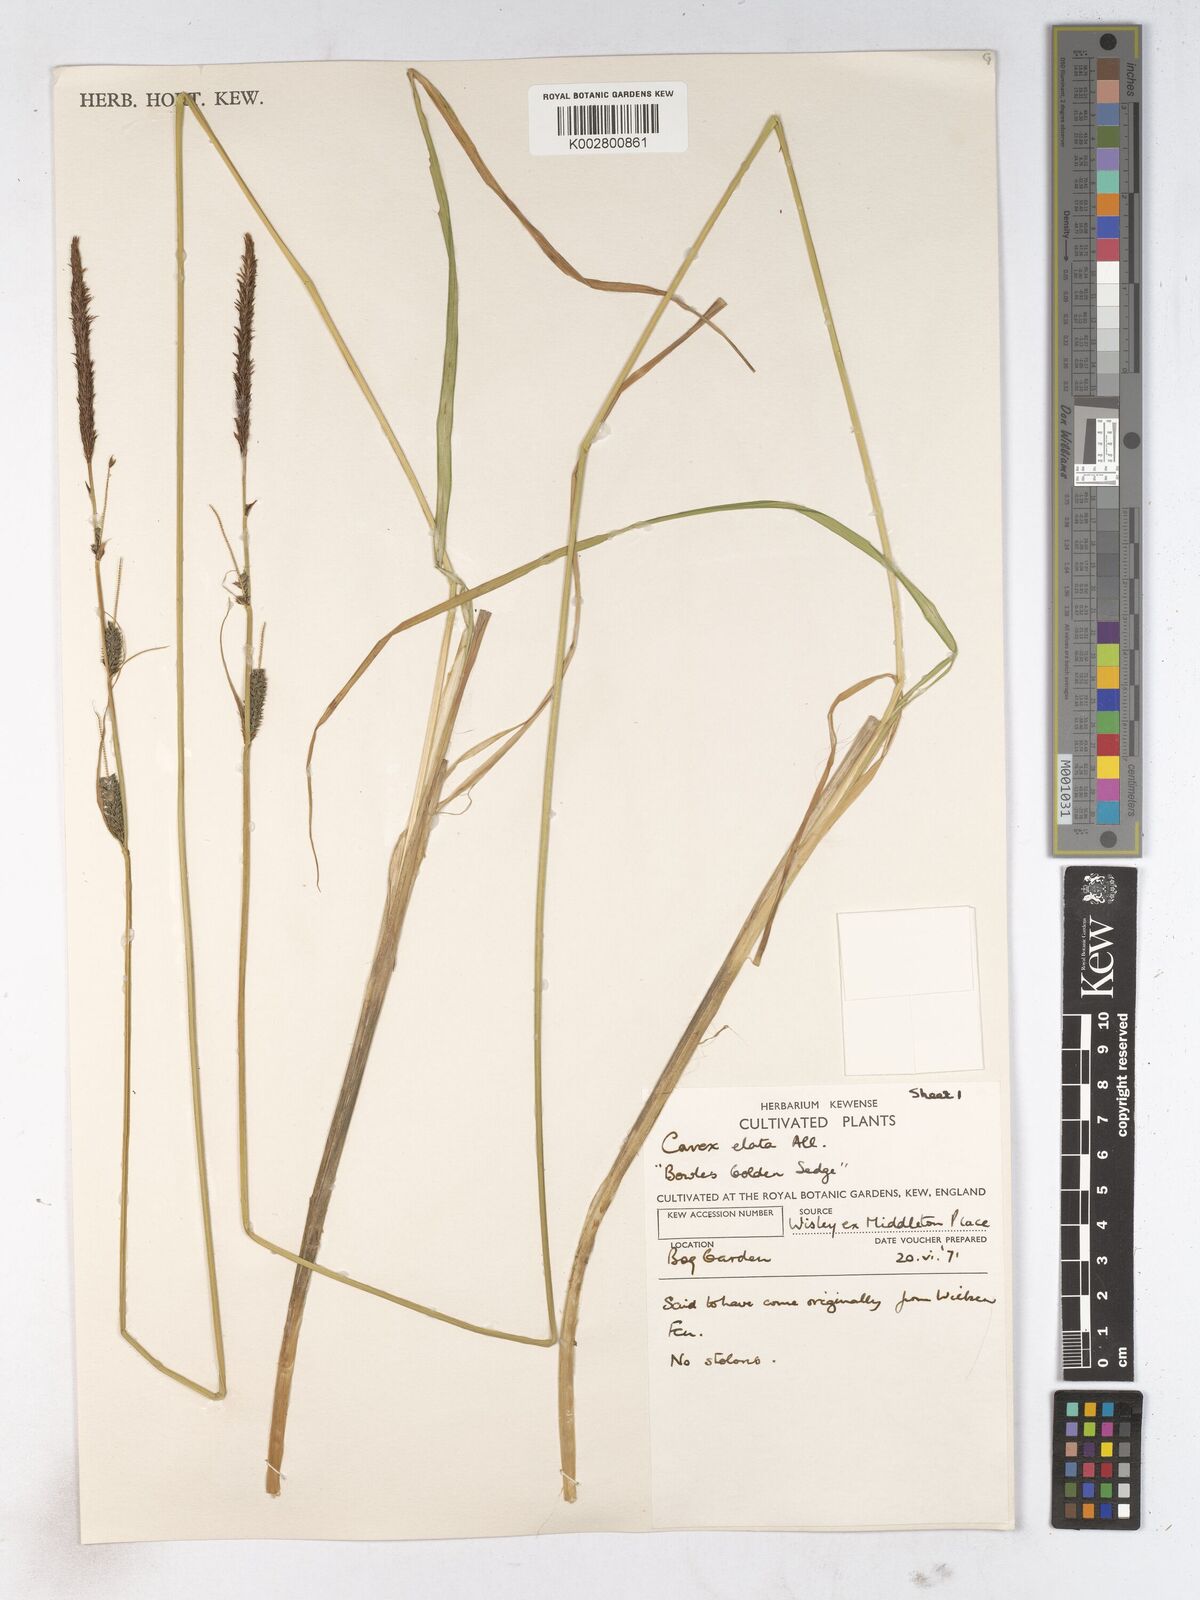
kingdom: Plantae
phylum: Tracheophyta
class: Liliopsida
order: Poales
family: Cyperaceae
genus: Carex
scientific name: Carex elata
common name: Tufted sedge
